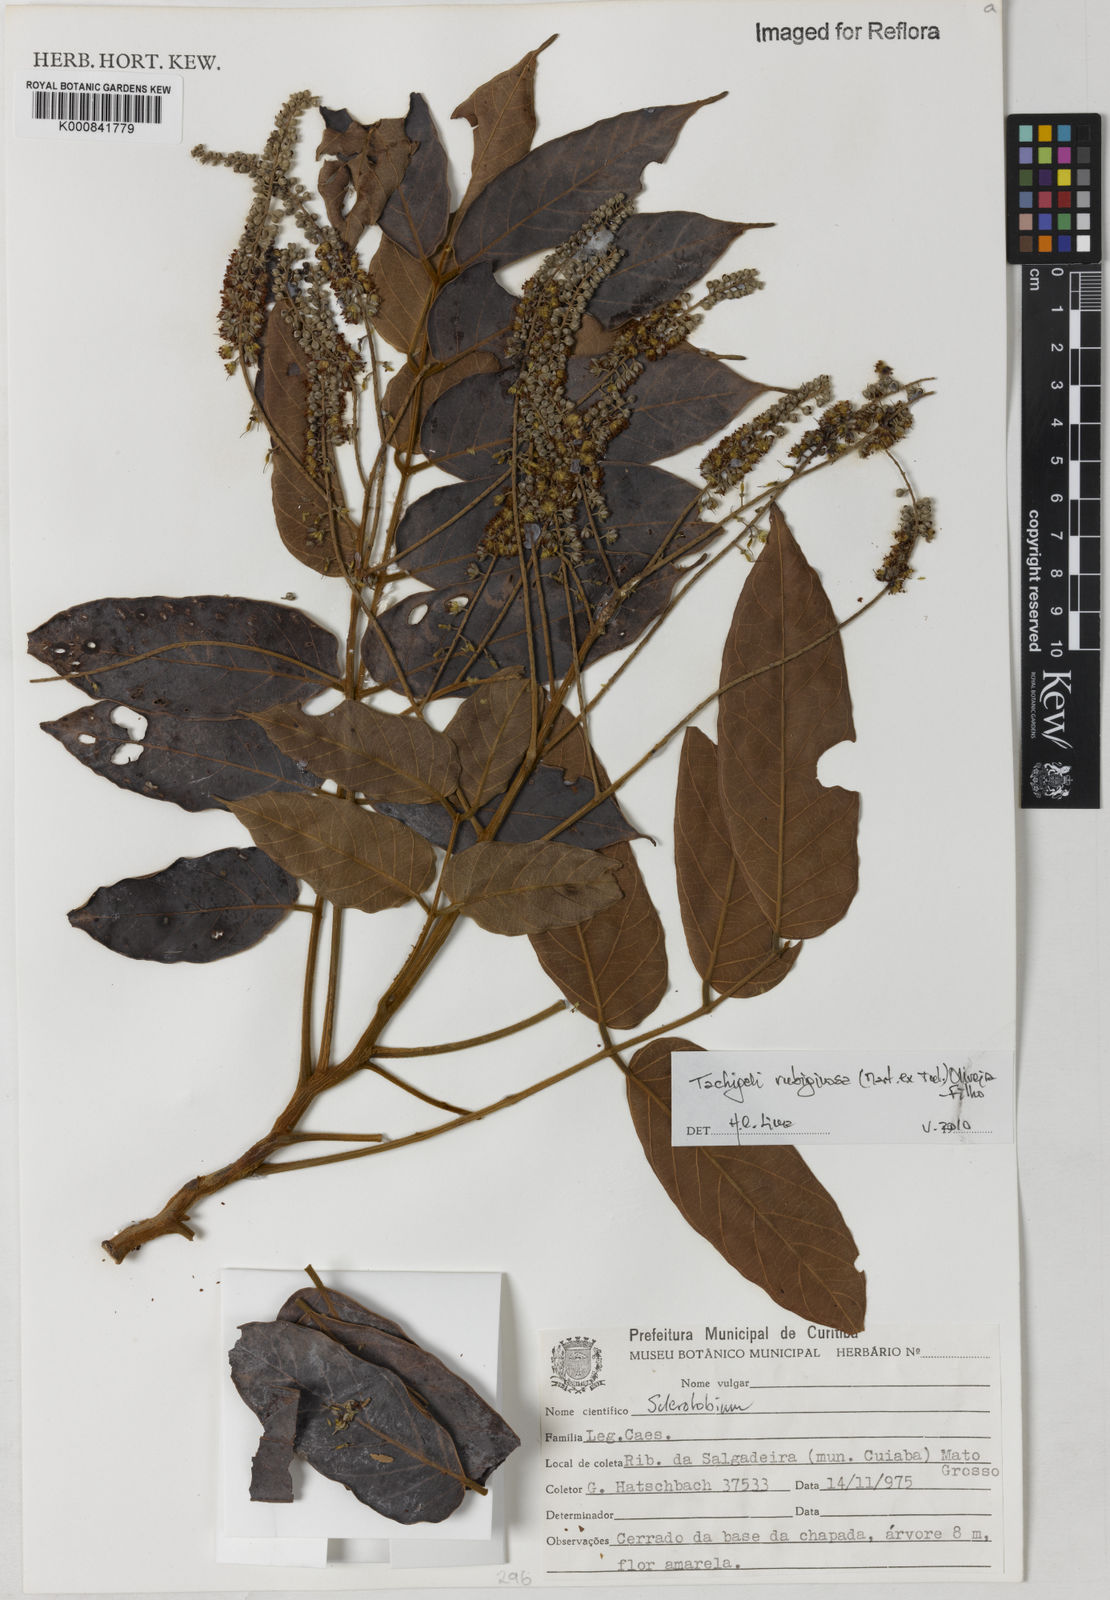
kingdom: Plantae
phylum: Tracheophyta
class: Magnoliopsida
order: Fabales
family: Fabaceae
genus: Tachigali
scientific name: Tachigali rubiginosa
